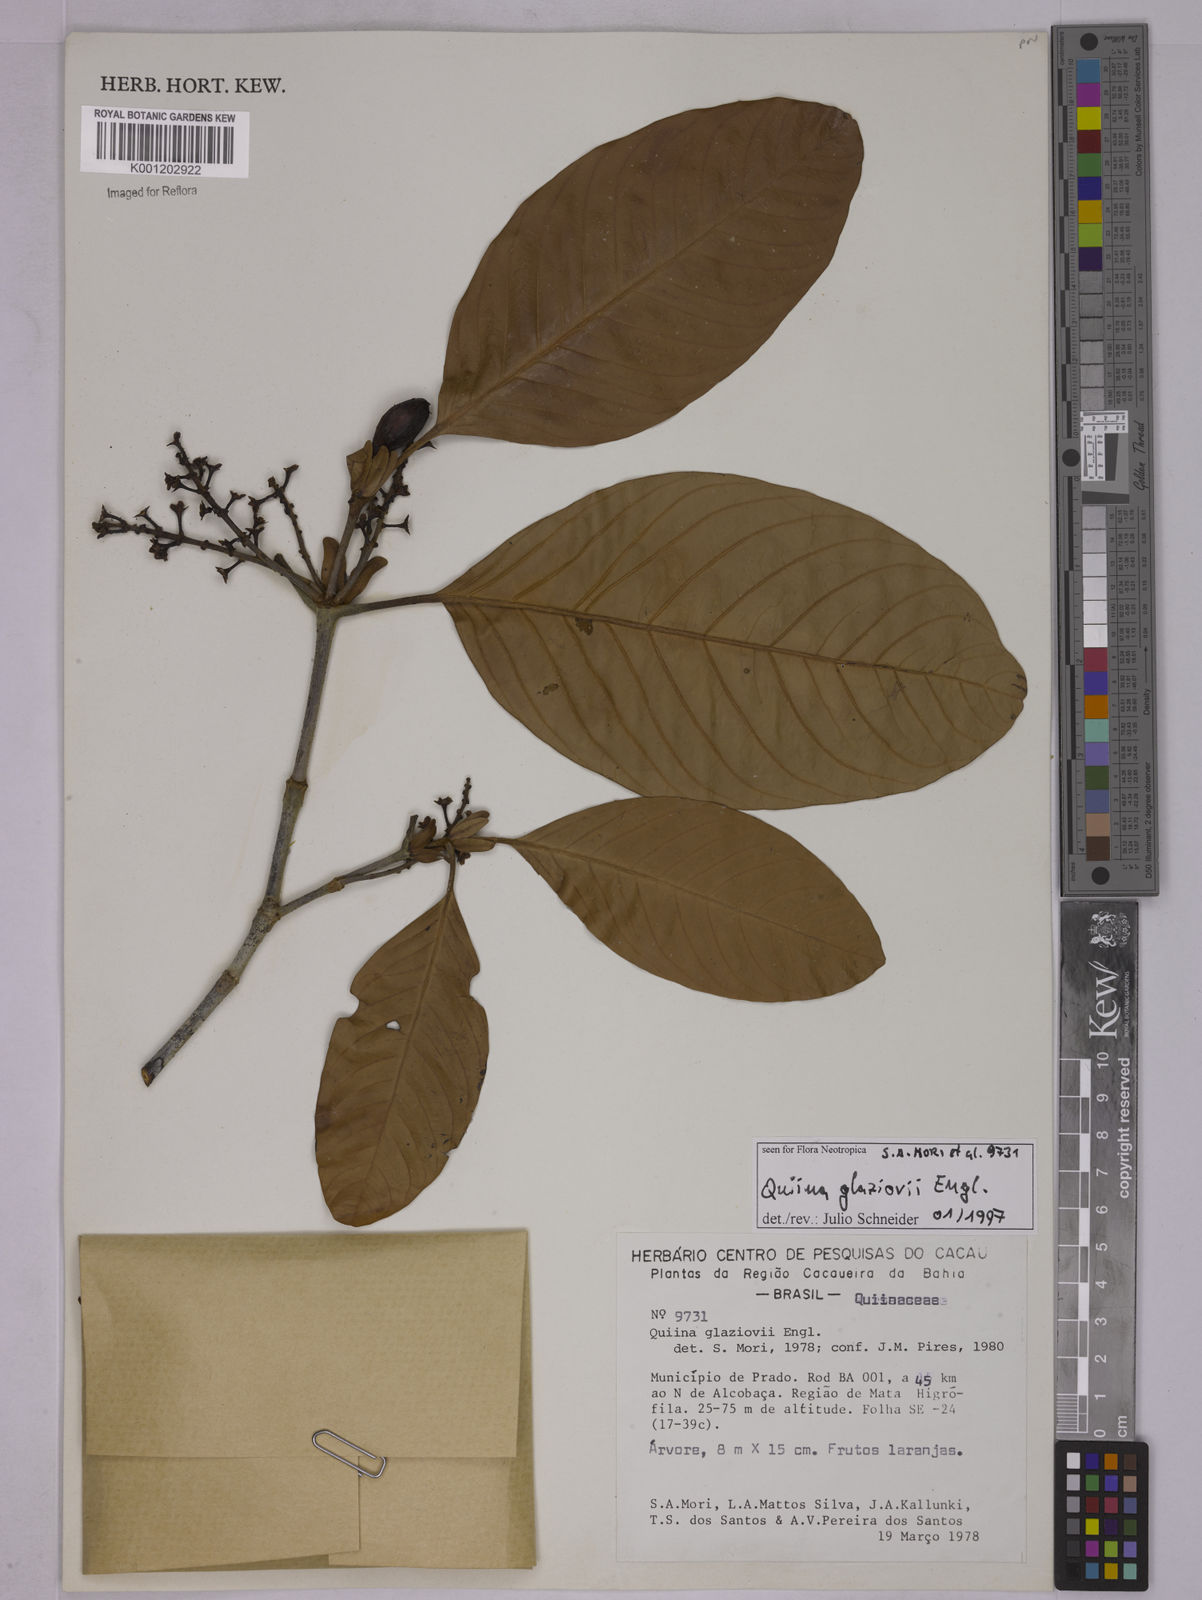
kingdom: Plantae
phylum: Tracheophyta
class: Magnoliopsida
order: Malpighiales
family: Quiinaceae
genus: Quiina
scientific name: Quiina glaziovii
